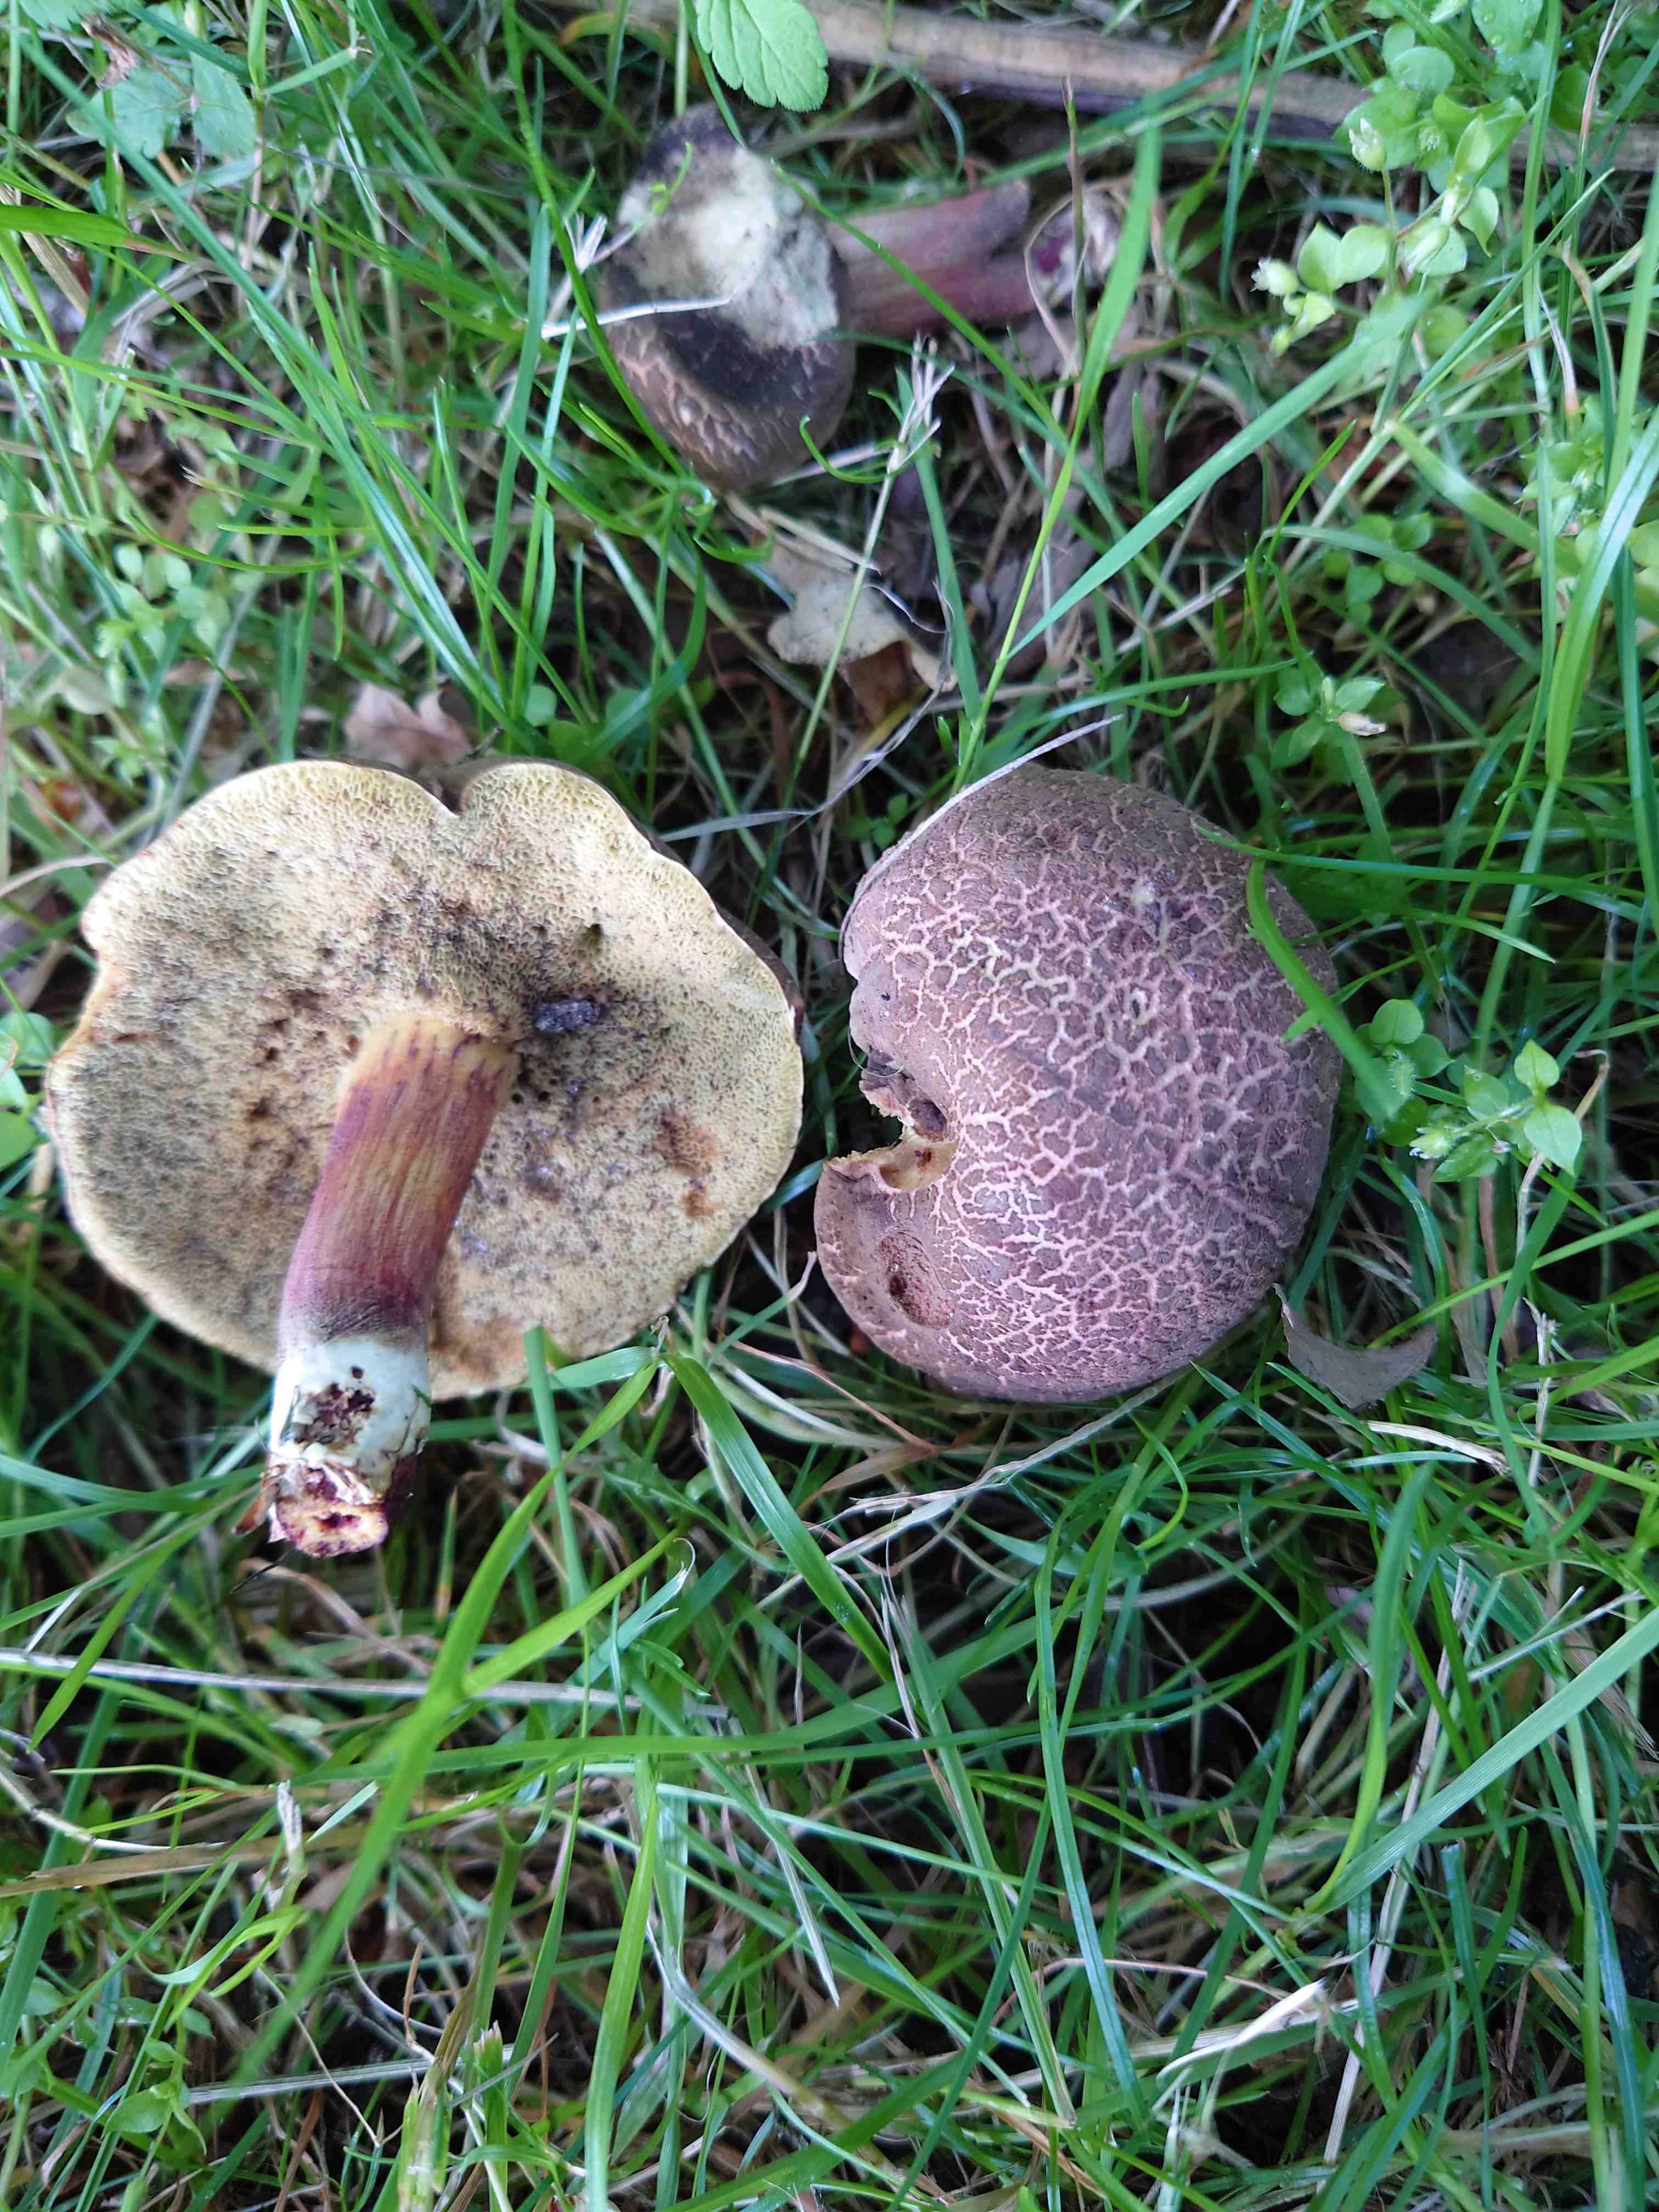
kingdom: Fungi
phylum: Basidiomycota
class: Agaricomycetes
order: Boletales
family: Boletaceae
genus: Xerocomellus
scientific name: Xerocomellus cisalpinus
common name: finsprukken rørhat
